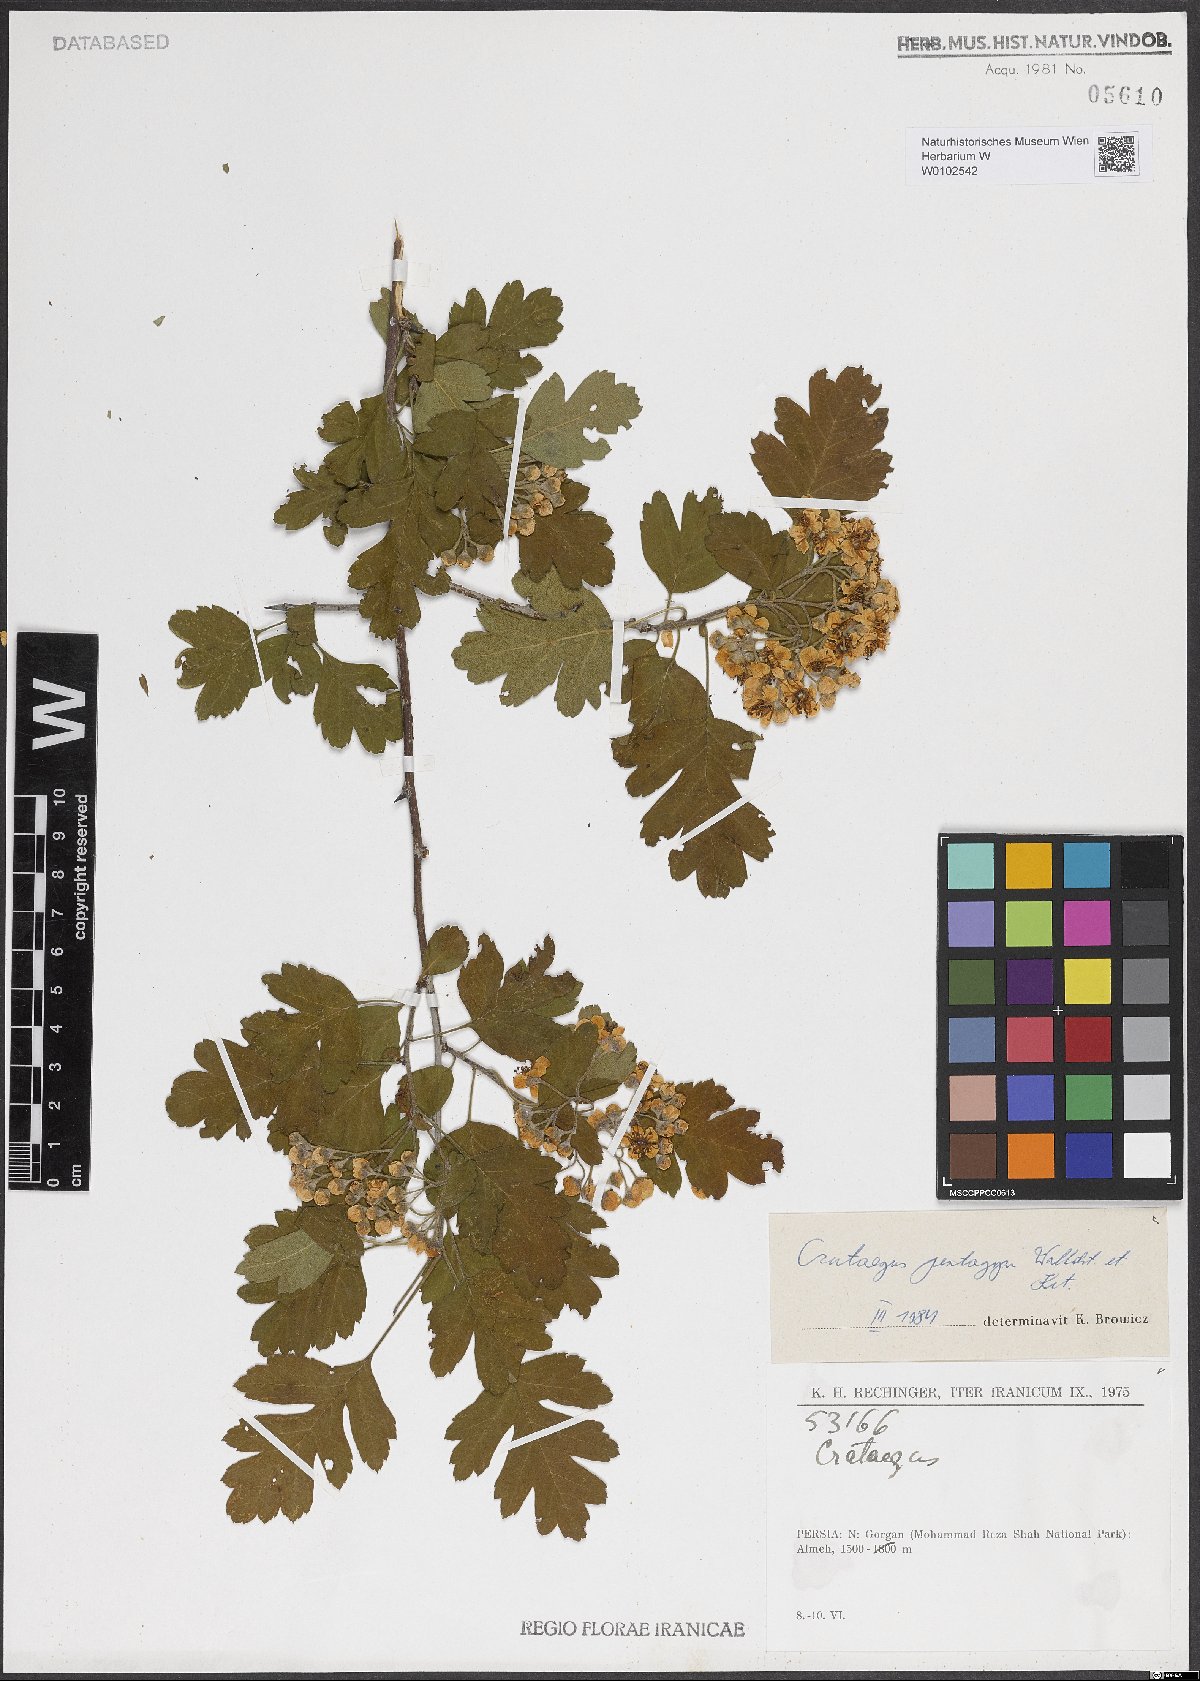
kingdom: Plantae
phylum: Tracheophyta
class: Magnoliopsida
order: Rosales
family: Rosaceae
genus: Crataegus
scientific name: Crataegus pentagyna
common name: Small-flowered black hawthorn
